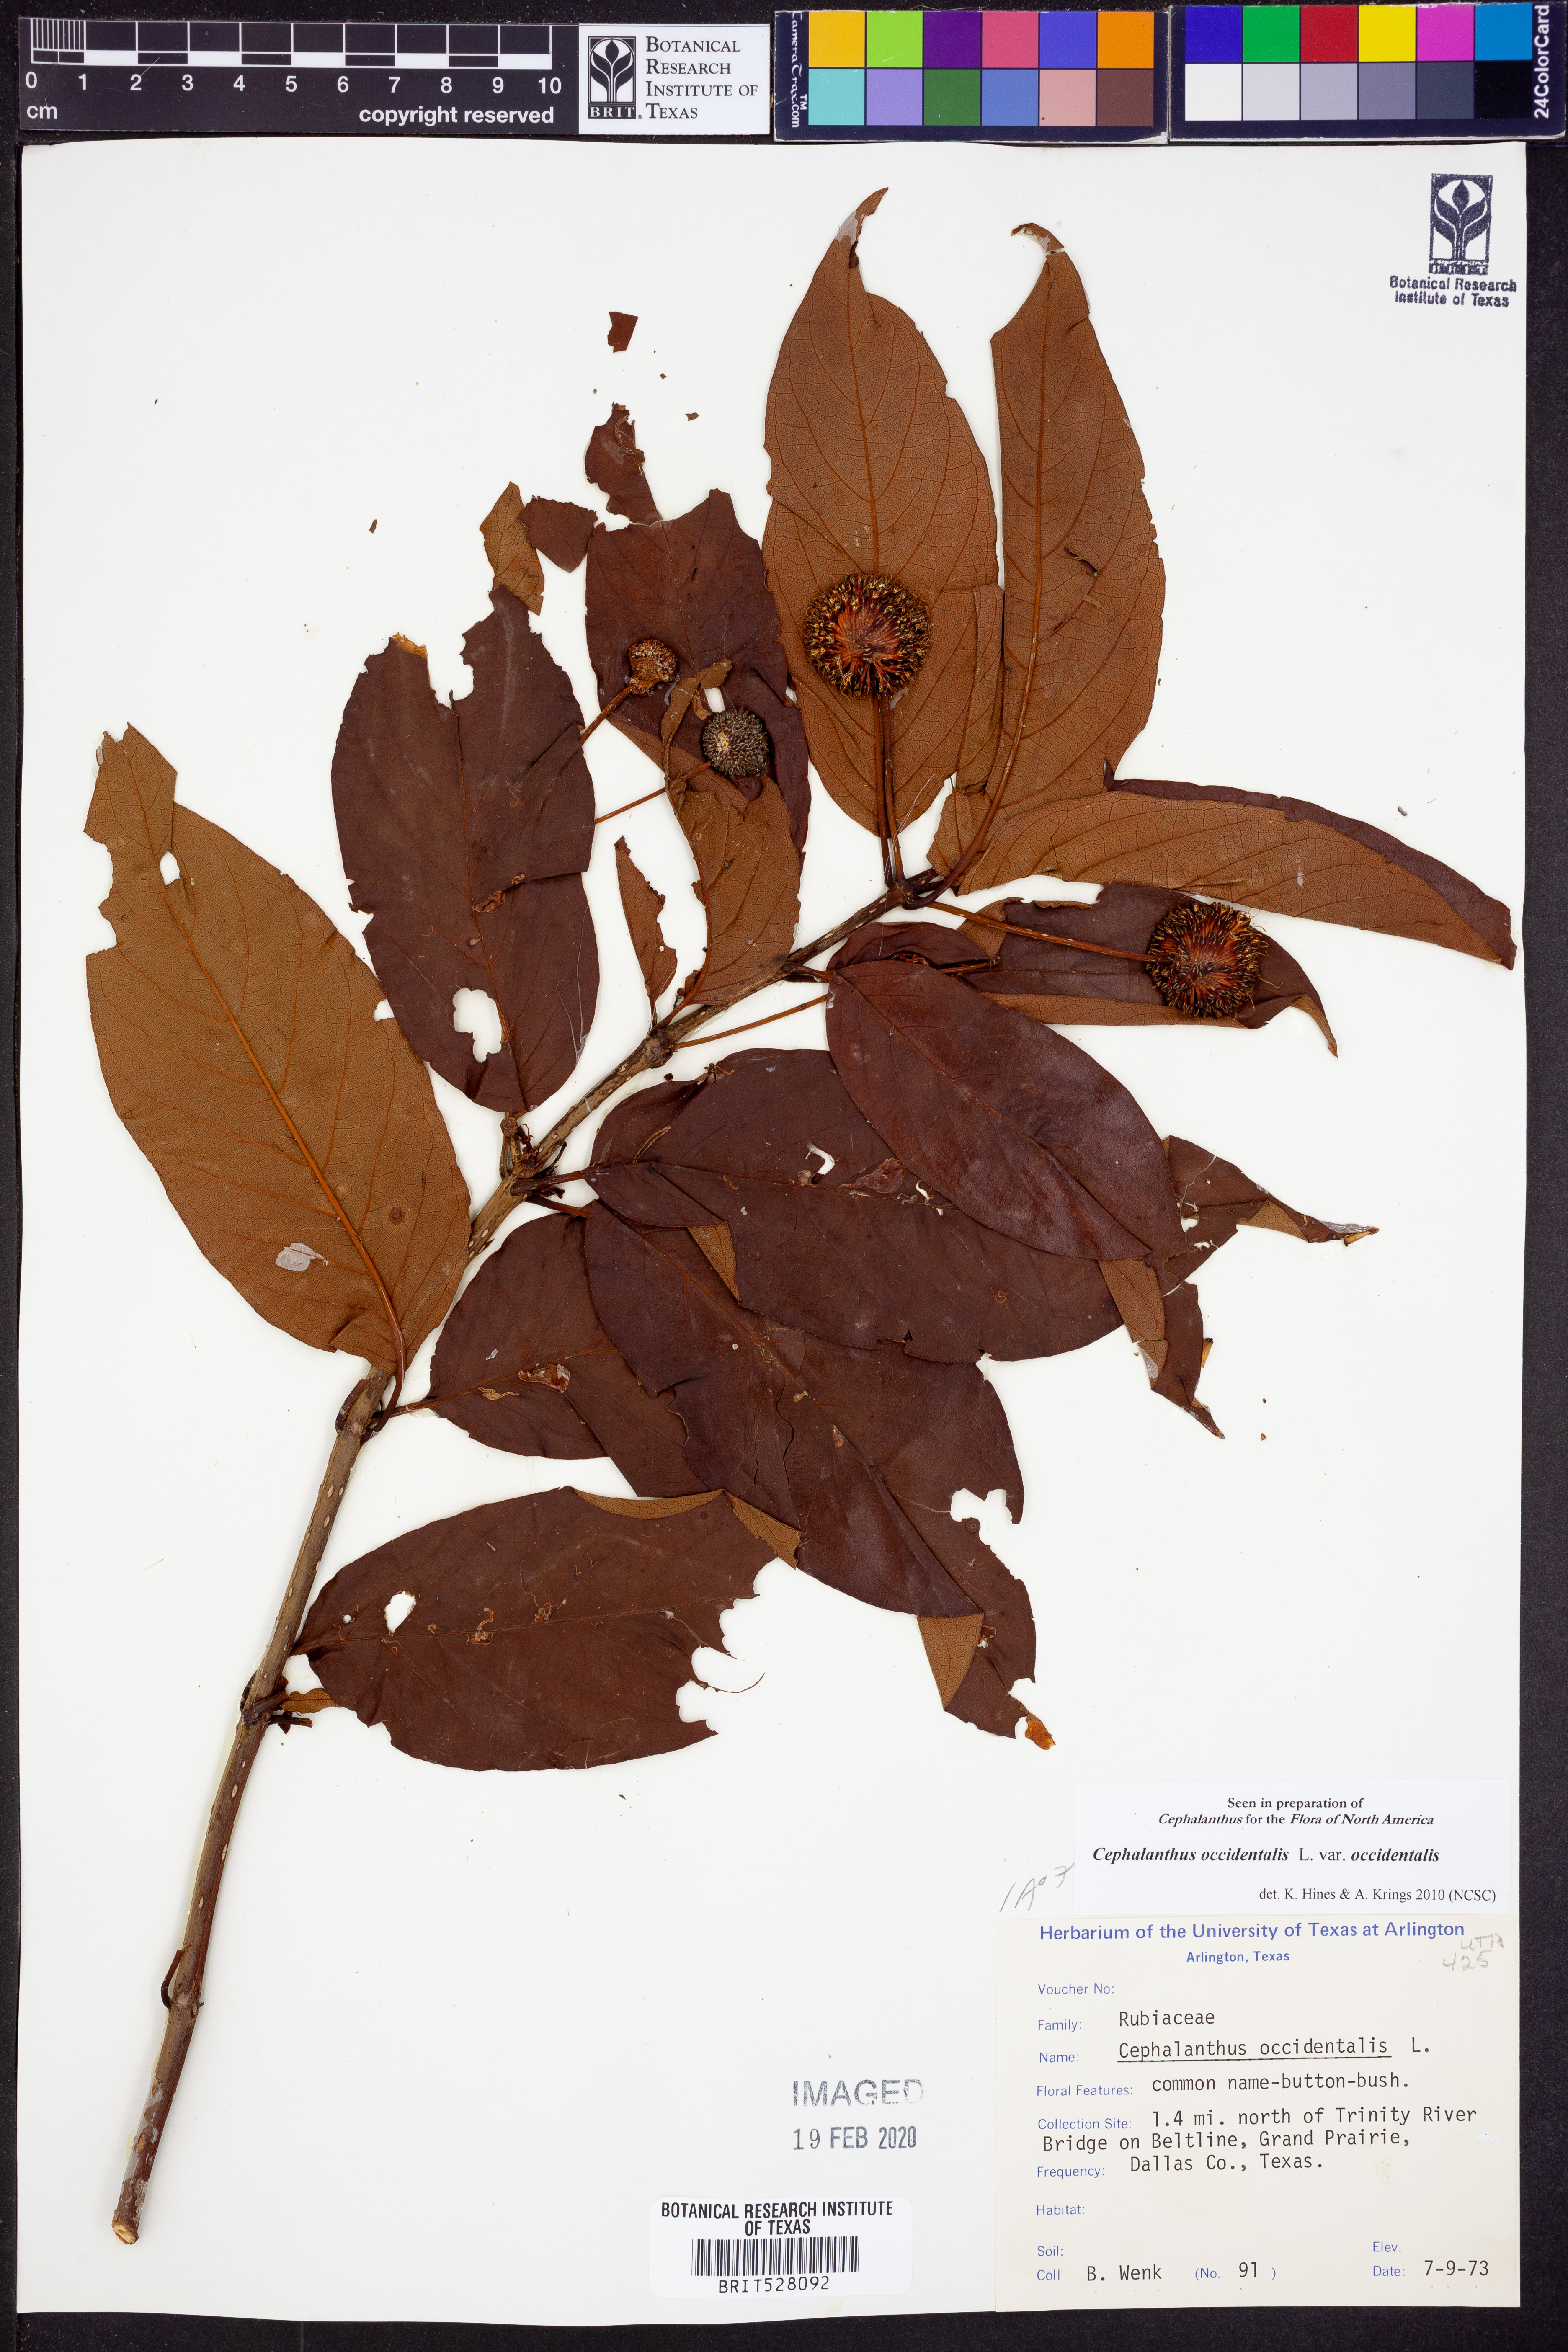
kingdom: Plantae
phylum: Tracheophyta
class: Magnoliopsida
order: Gentianales
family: Rubiaceae
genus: Cephalanthus
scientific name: Cephalanthus occidentalis
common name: Button-willow
